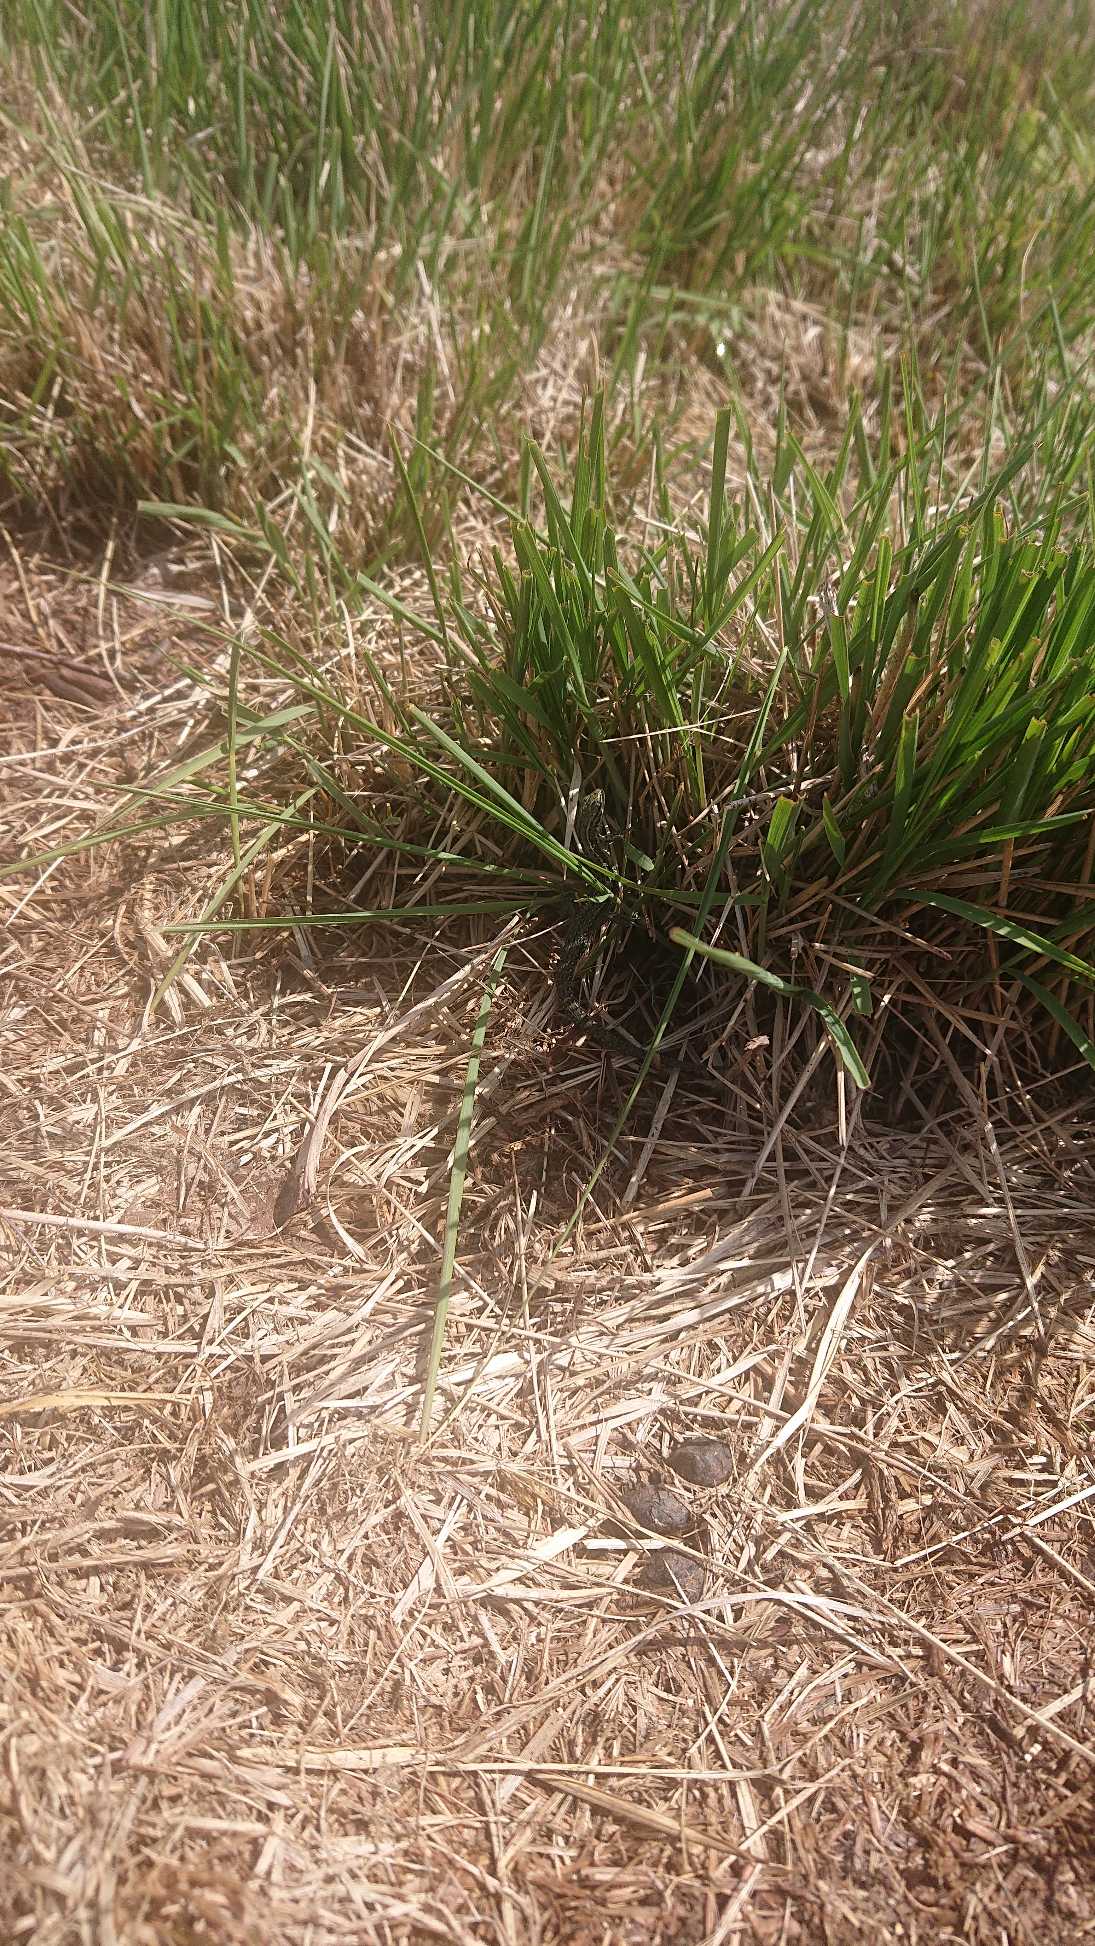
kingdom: Animalia
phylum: Chordata
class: Squamata
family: Lacertidae
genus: Zootoca
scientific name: Zootoca vivipara
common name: Skovfirben
